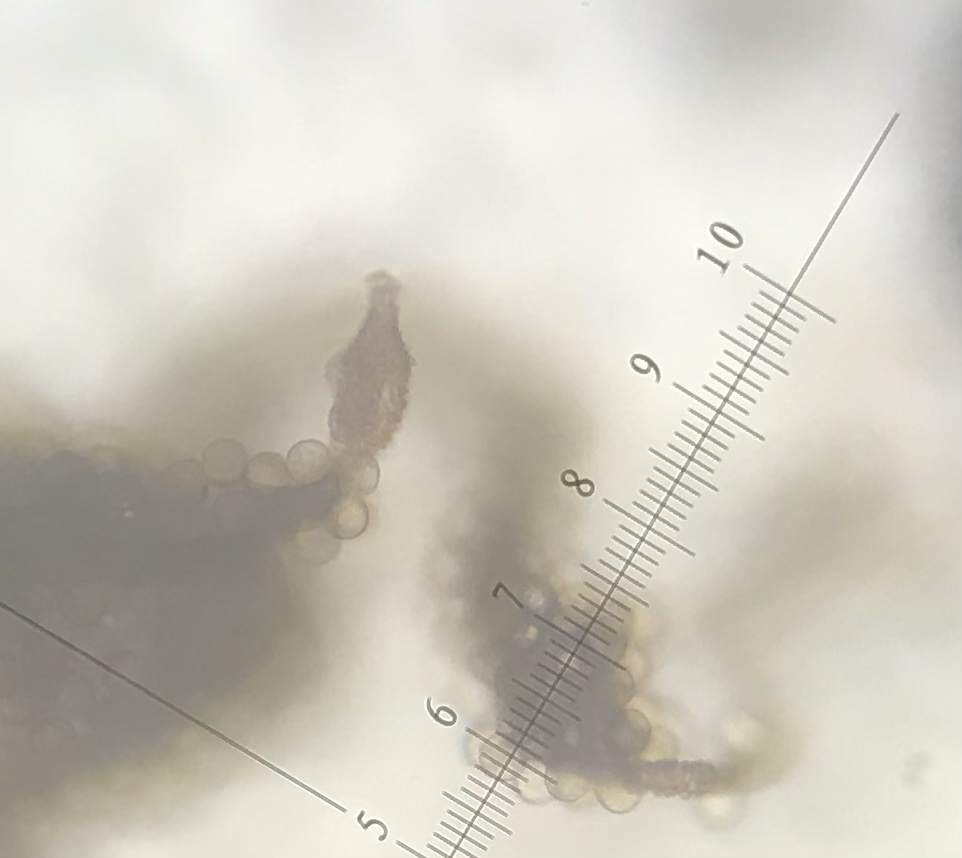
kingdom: Protozoa
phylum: Mycetozoa
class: Myxomycetes
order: Trichiales
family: Arcyriaceae
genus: Arcyria
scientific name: Arcyria affinis
